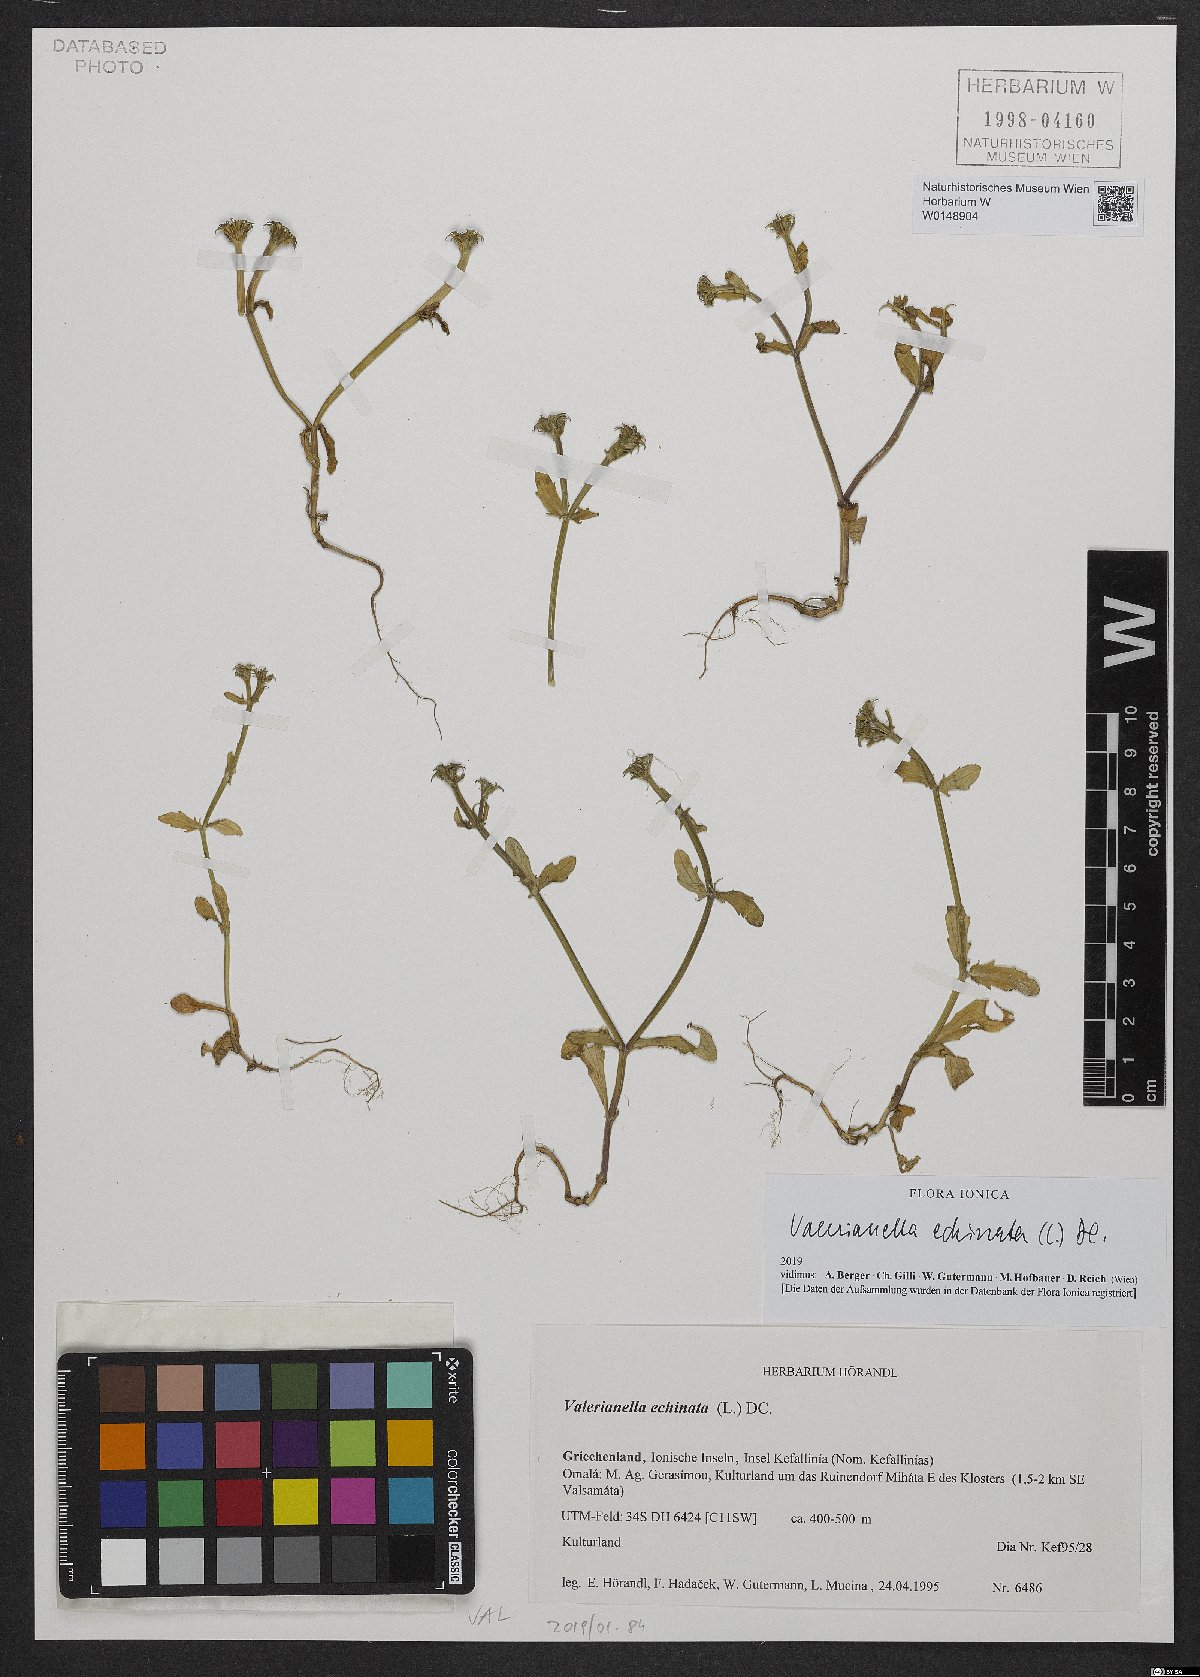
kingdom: Plantae
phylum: Tracheophyta
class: Magnoliopsida
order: Dipsacales
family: Caprifoliaceae
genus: Valerianella
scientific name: Valerianella echinata
